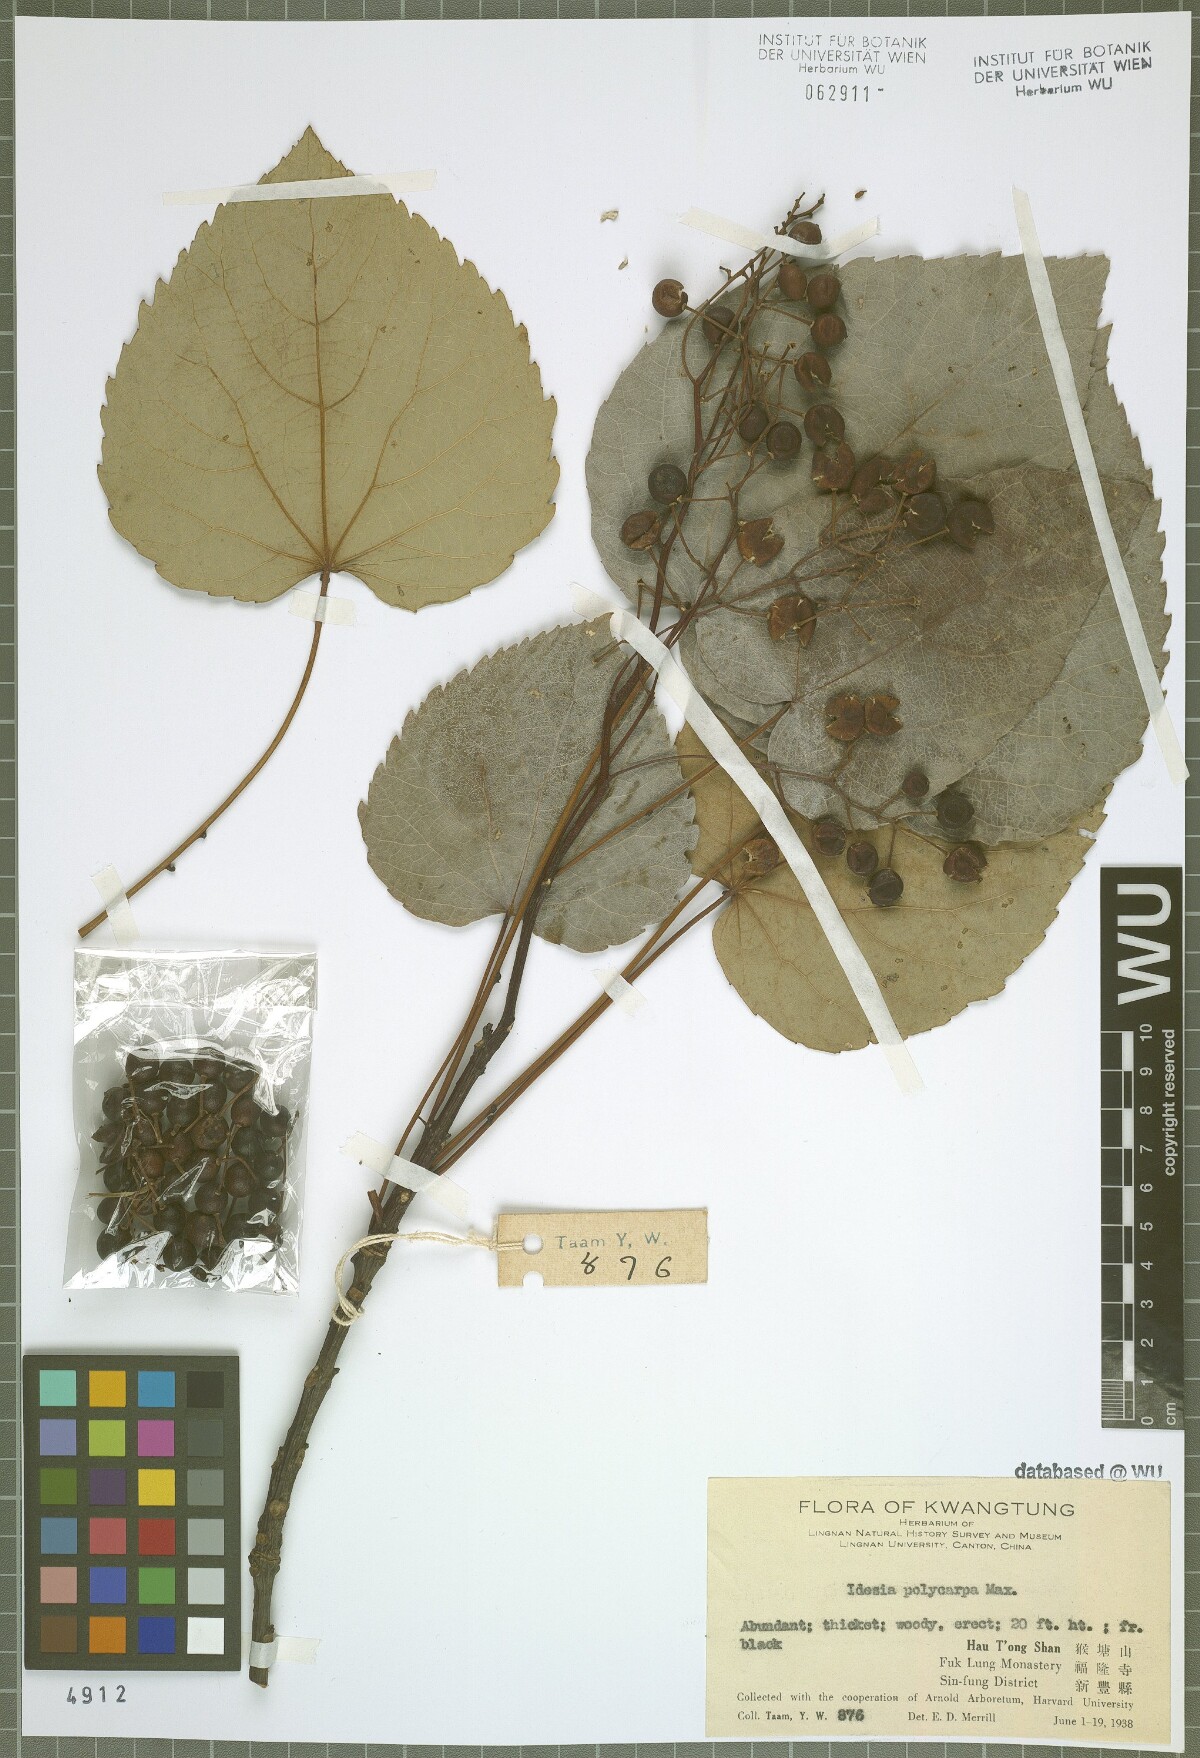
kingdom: Plantae
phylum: Tracheophyta
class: Magnoliopsida
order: Malpighiales
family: Salicaceae
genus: Idesia
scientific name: Idesia polycarpa
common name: Idesia tree
